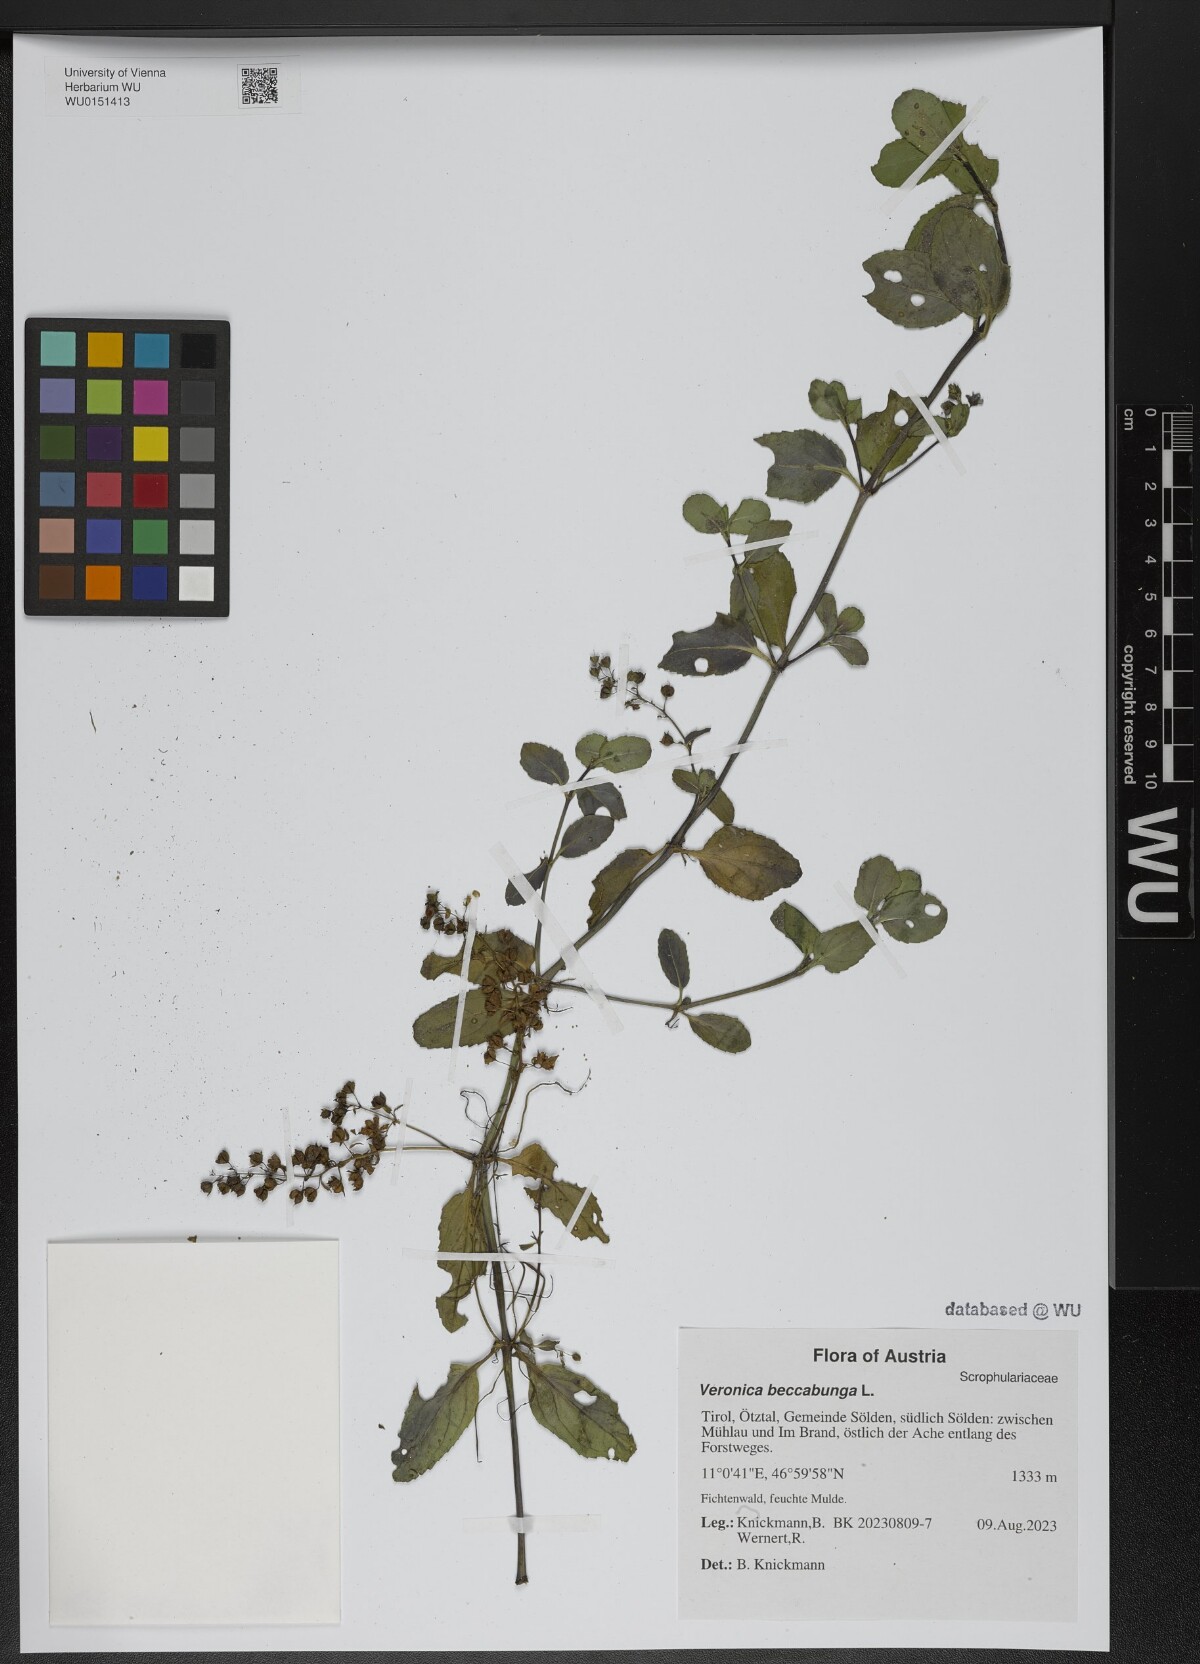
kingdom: Plantae
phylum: Tracheophyta
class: Magnoliopsida
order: Lamiales
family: Plantaginaceae
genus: Veronica
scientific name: Veronica beccabunga
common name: Brooklime
